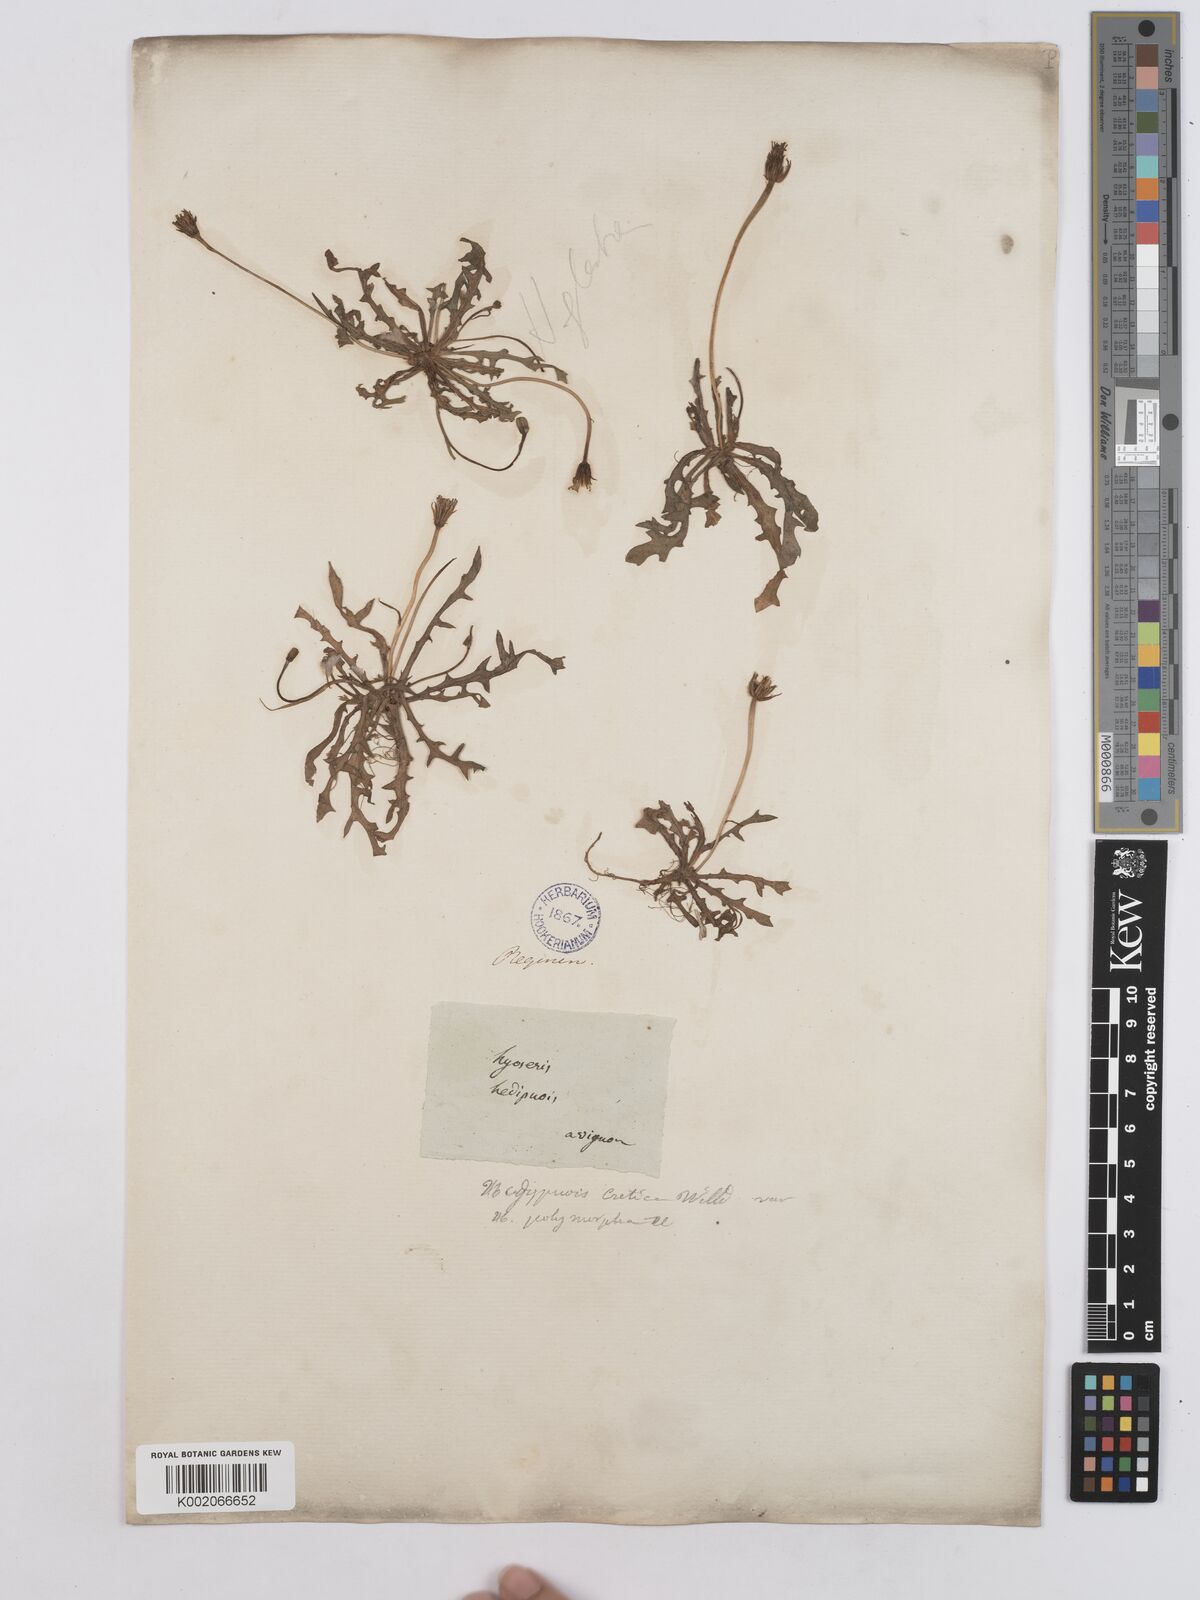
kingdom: Plantae
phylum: Tracheophyta
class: Magnoliopsida
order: Asterales
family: Asteraceae
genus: Hedypnois
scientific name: Hedypnois cretica
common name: Scaly hawkbit
